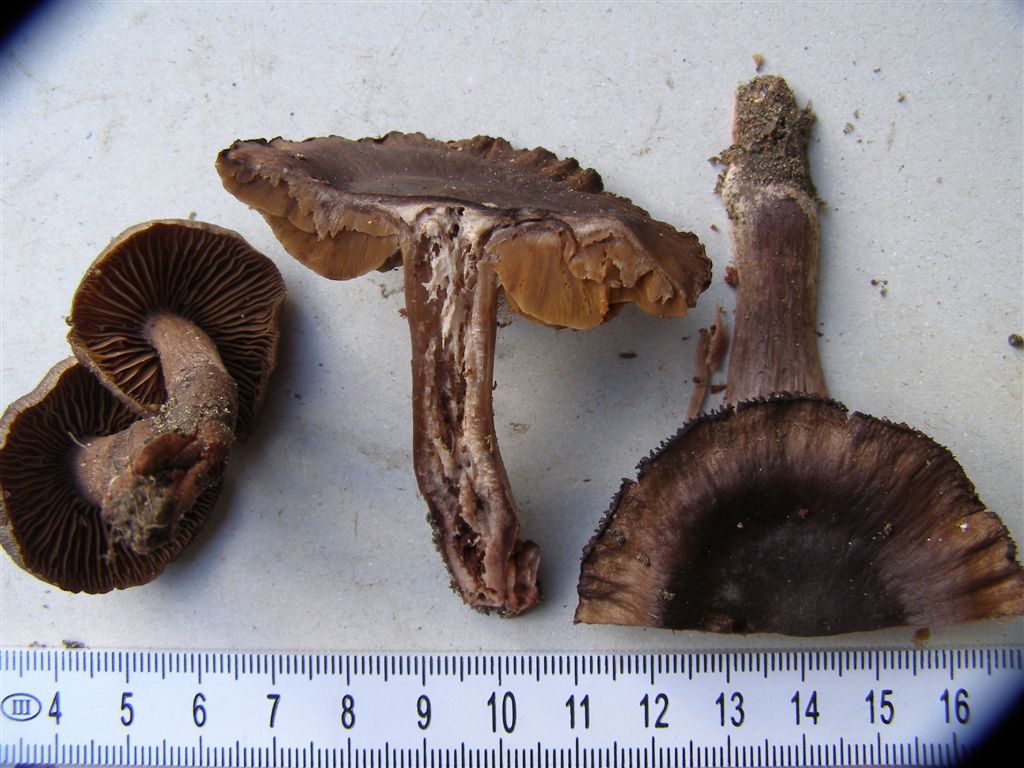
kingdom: Fungi
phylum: Basidiomycota
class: Agaricomycetes
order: Agaricales
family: Cortinariaceae
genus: Cortinarius
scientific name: Cortinarius vernus
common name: sommer-slørhat
